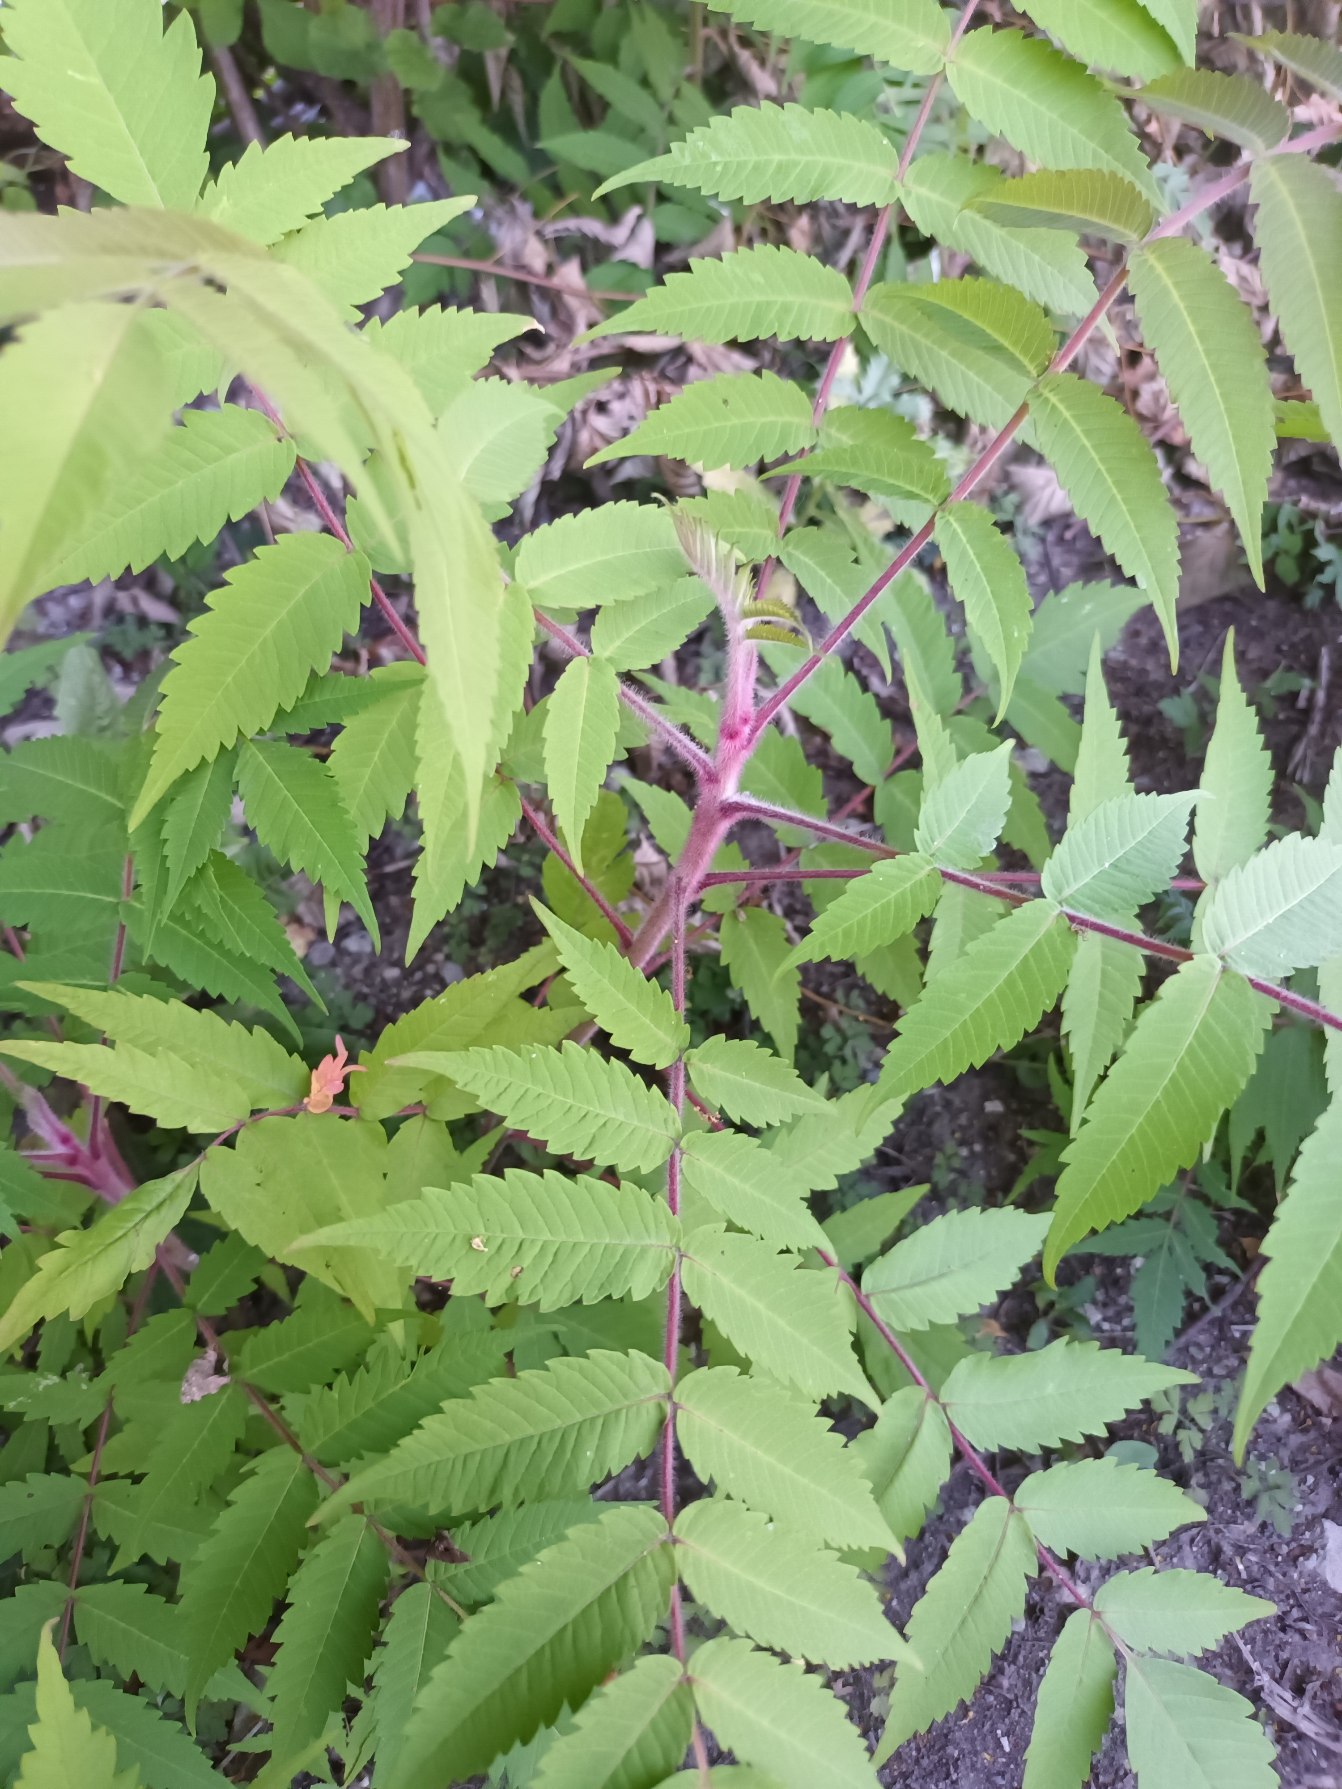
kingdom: Plantae
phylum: Tracheophyta
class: Magnoliopsida
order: Sapindales
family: Anacardiaceae
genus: Rhus
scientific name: Rhus typhina
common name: Hjortetaktræ
